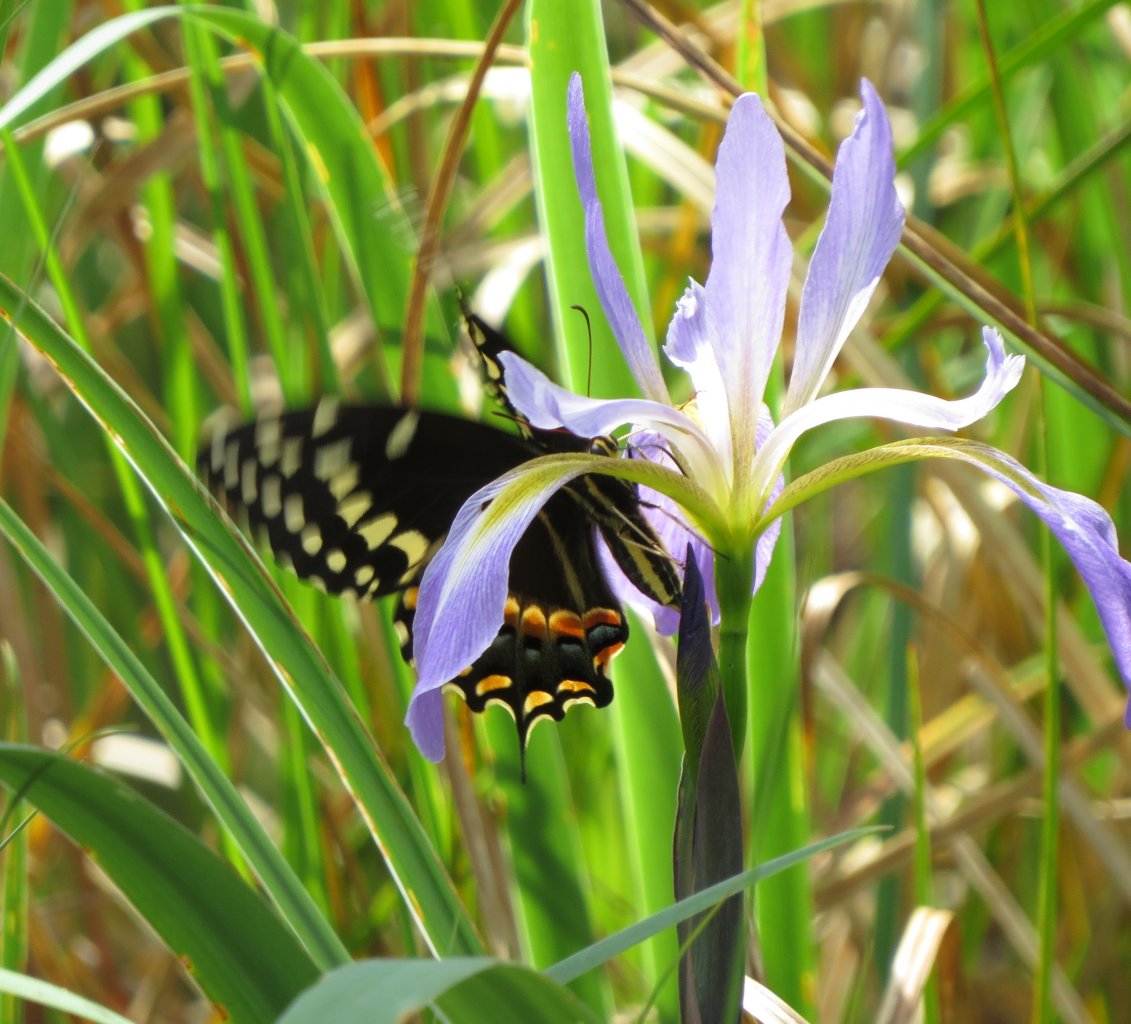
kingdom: Animalia
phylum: Arthropoda
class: Insecta
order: Lepidoptera
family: Papilionidae
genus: Pterourus
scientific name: Pterourus palamedes
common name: Palamedes Swallowtail
